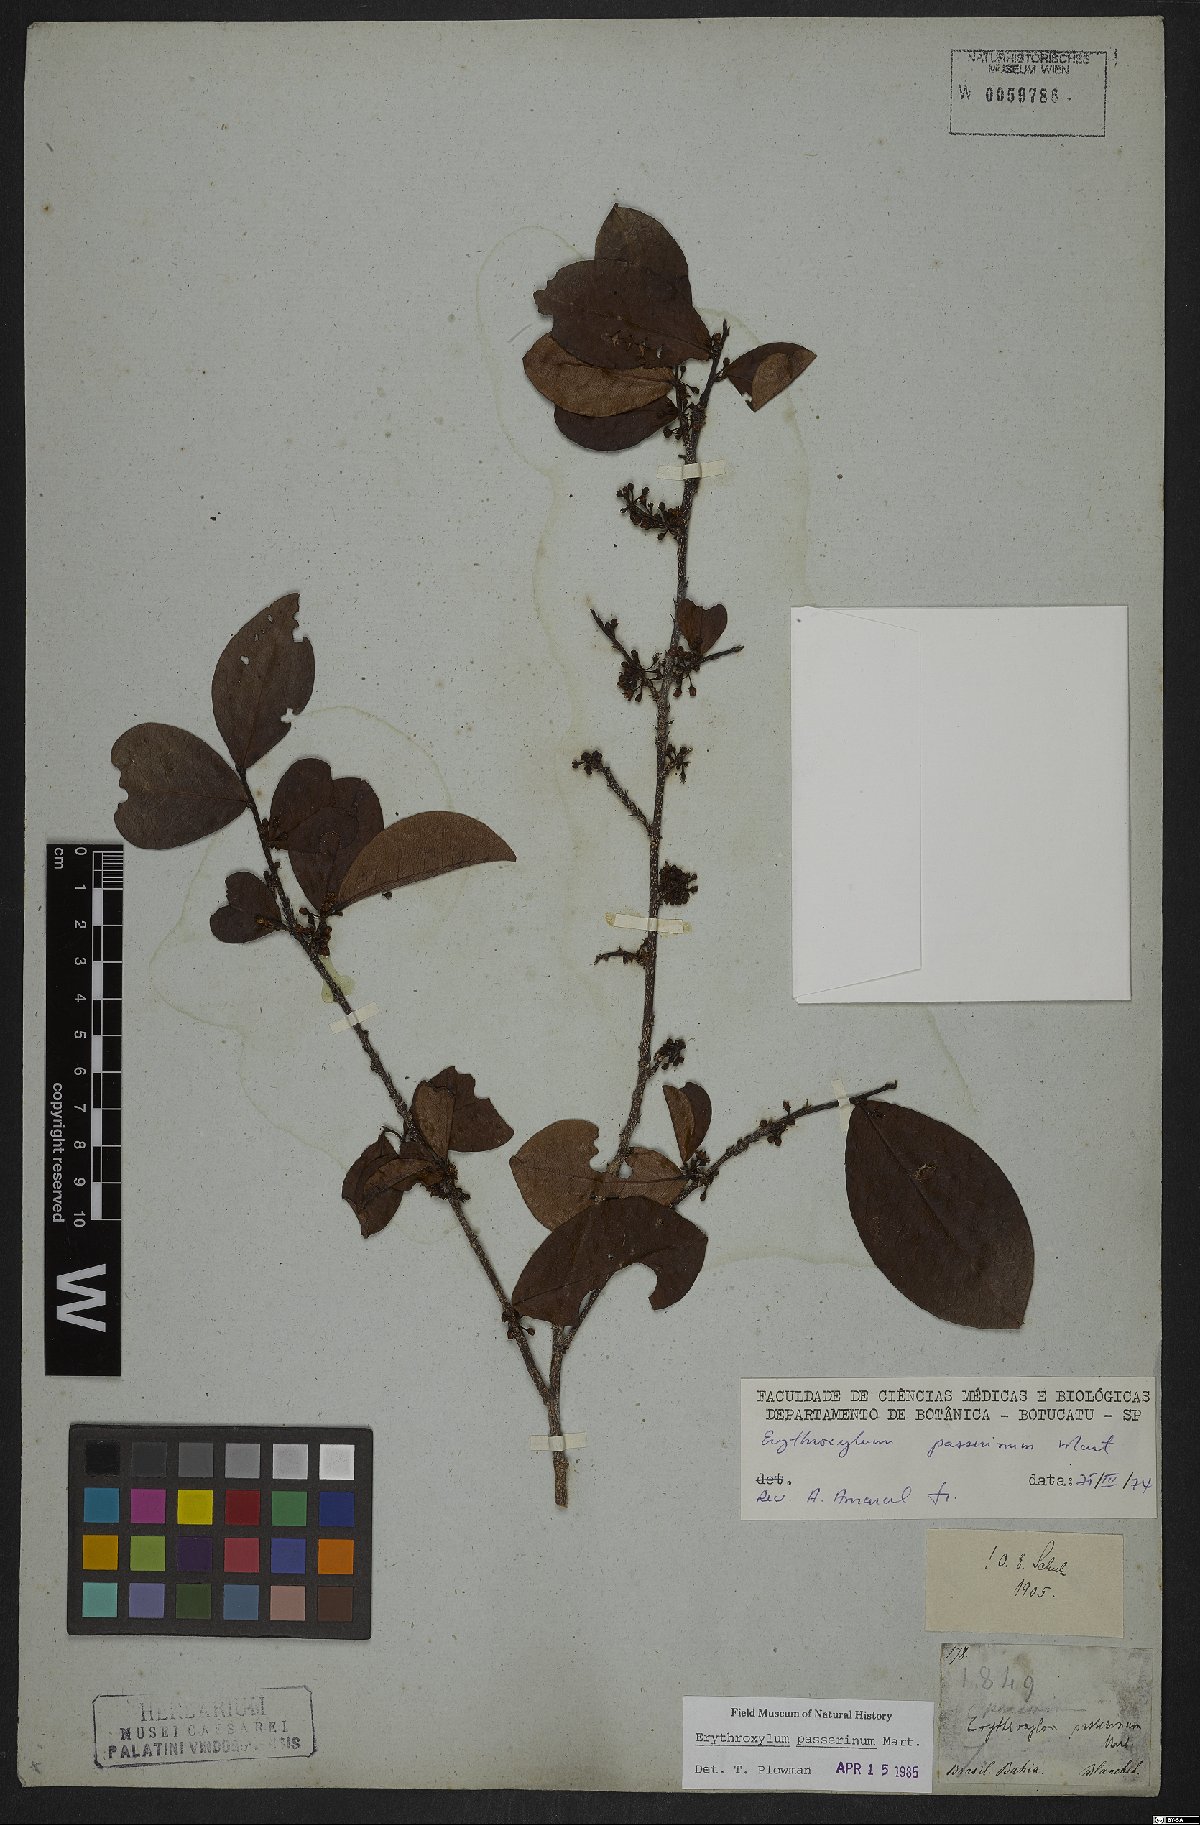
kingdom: Plantae
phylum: Tracheophyta
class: Magnoliopsida
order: Malpighiales
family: Erythroxylaceae
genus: Erythroxylum
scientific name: Erythroxylum passerinum
